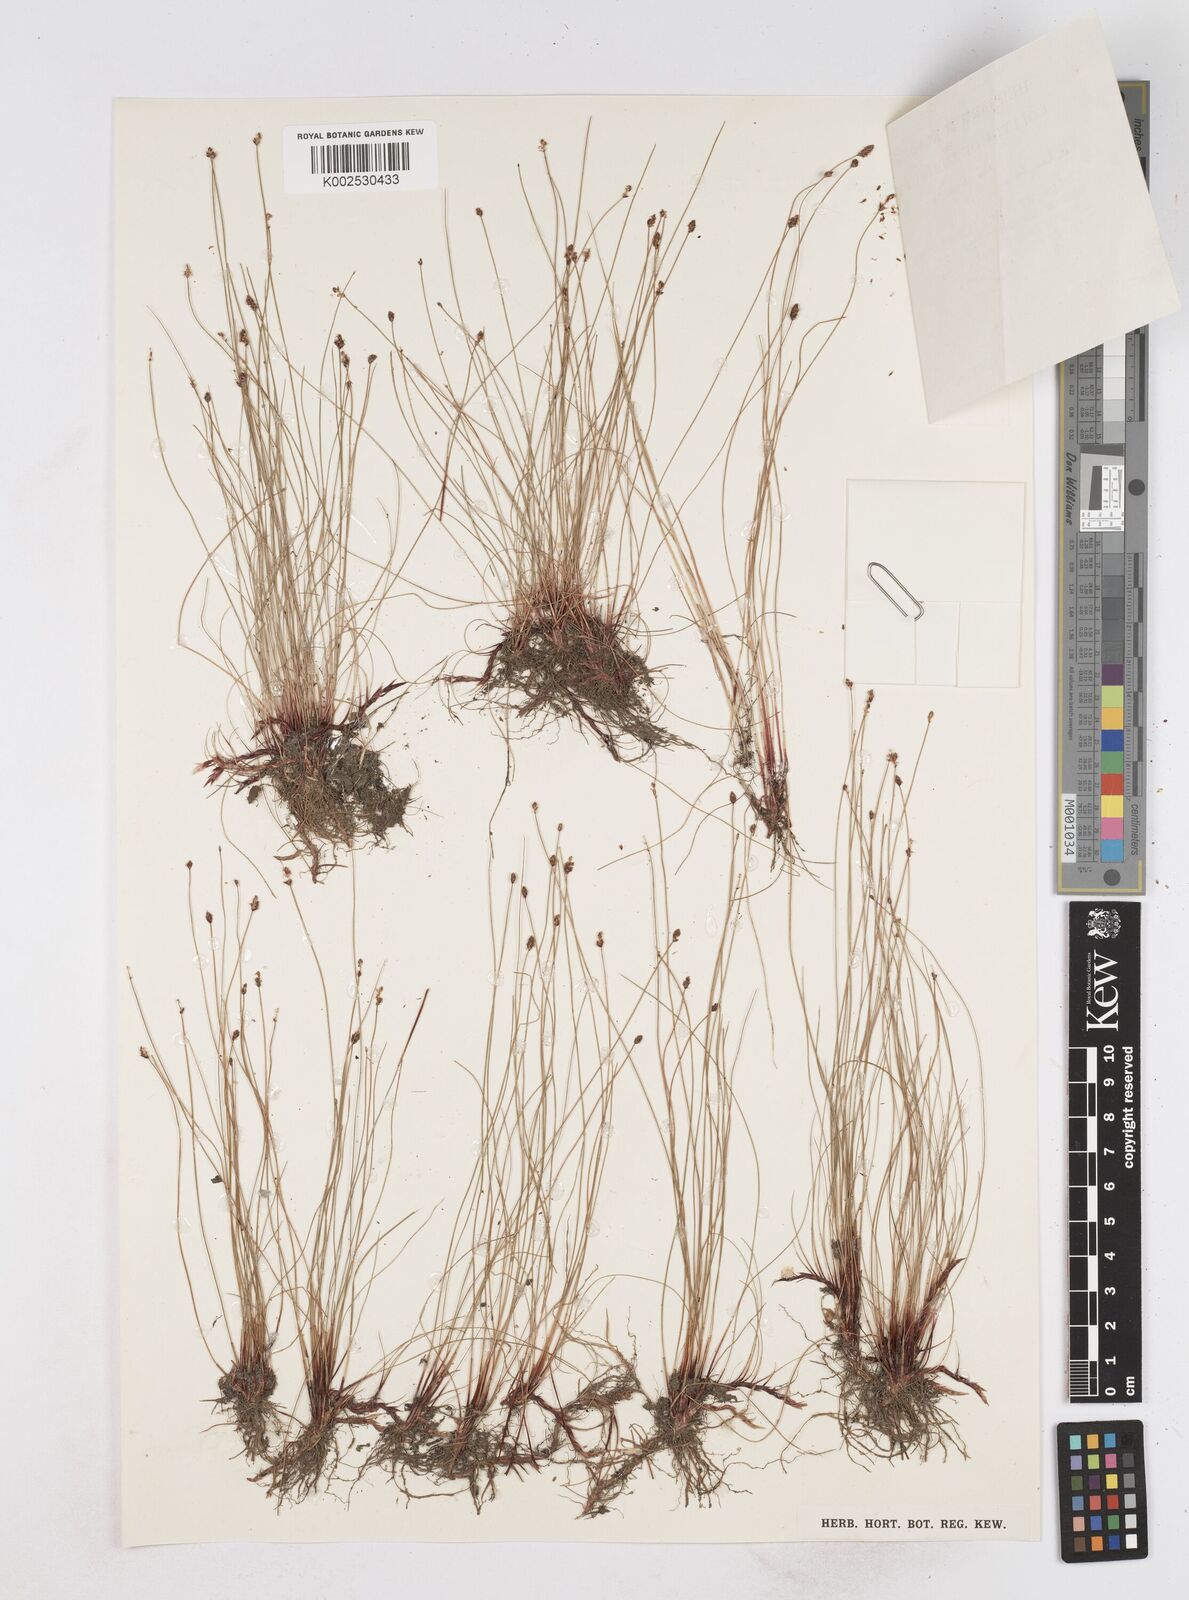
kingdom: Plantae
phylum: Tracheophyta
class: Liliopsida
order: Poales
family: Cyperaceae
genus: Eleocharis
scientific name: Eleocharis
